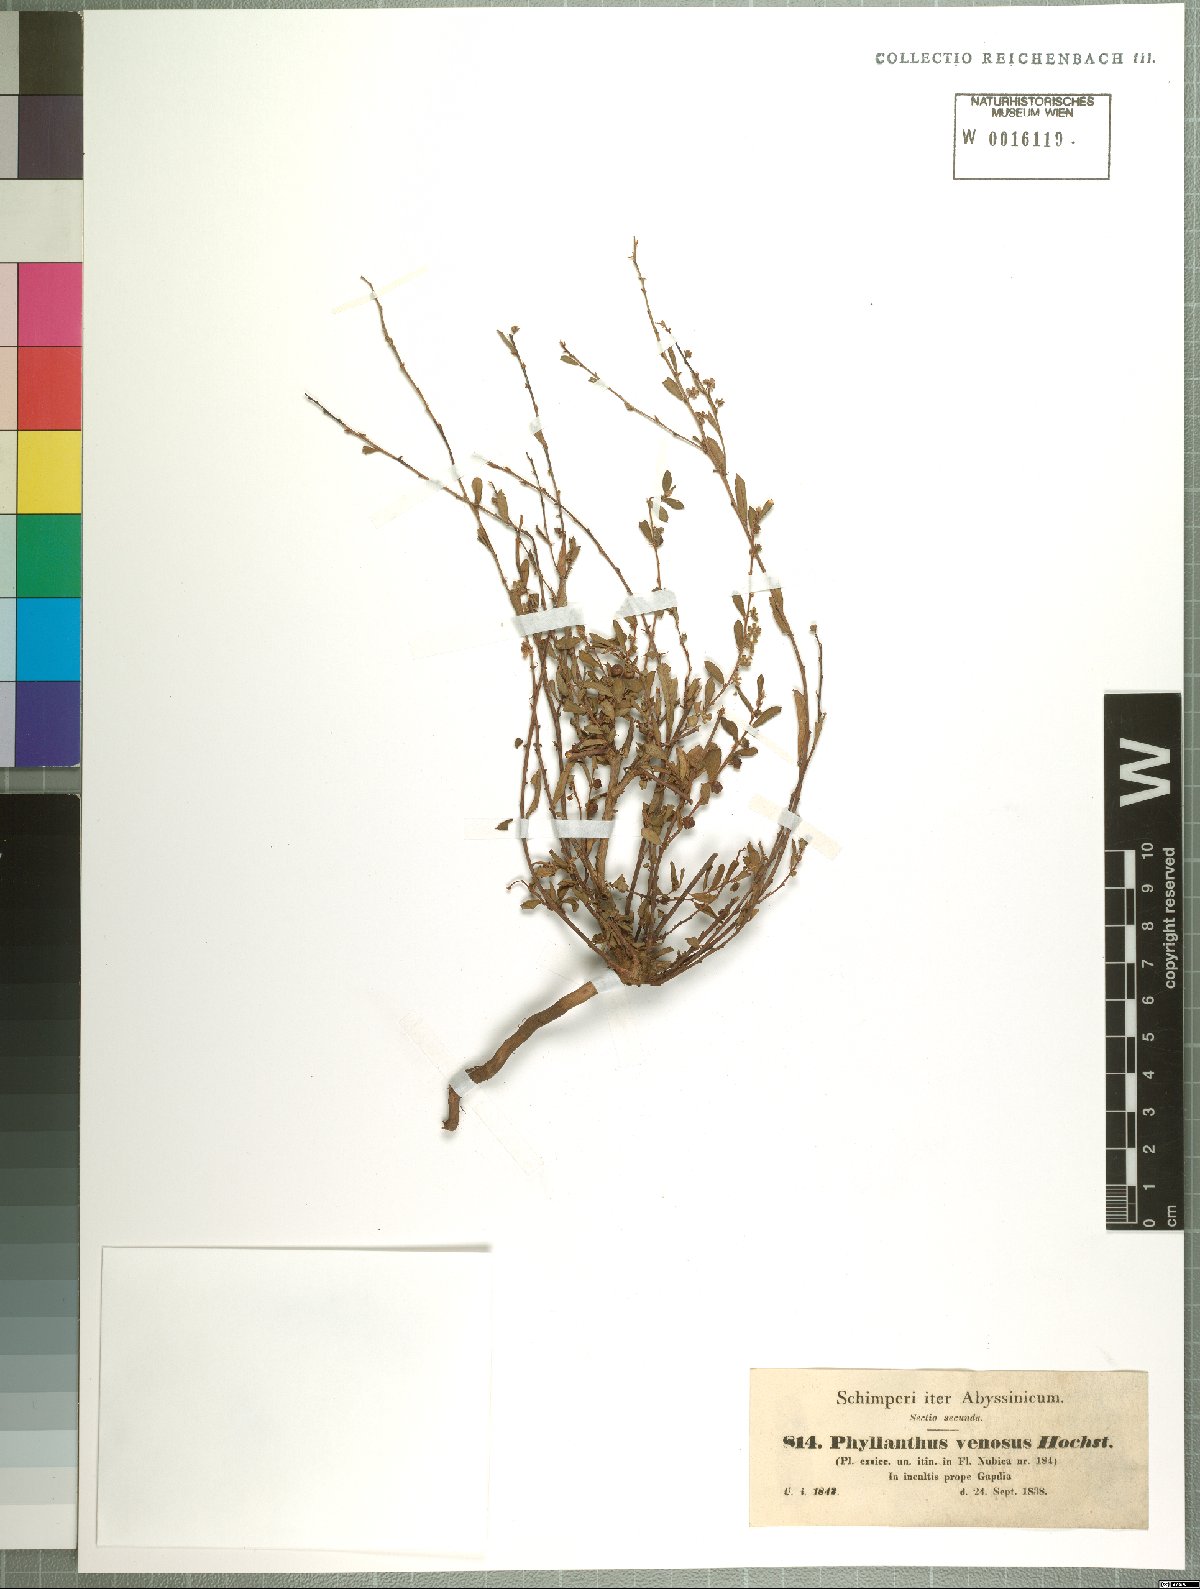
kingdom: Plantae
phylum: Tracheophyta
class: Magnoliopsida
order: Malpighiales
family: Phyllanthaceae
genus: Phyllanthus
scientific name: Phyllanthus maderaspatensis
